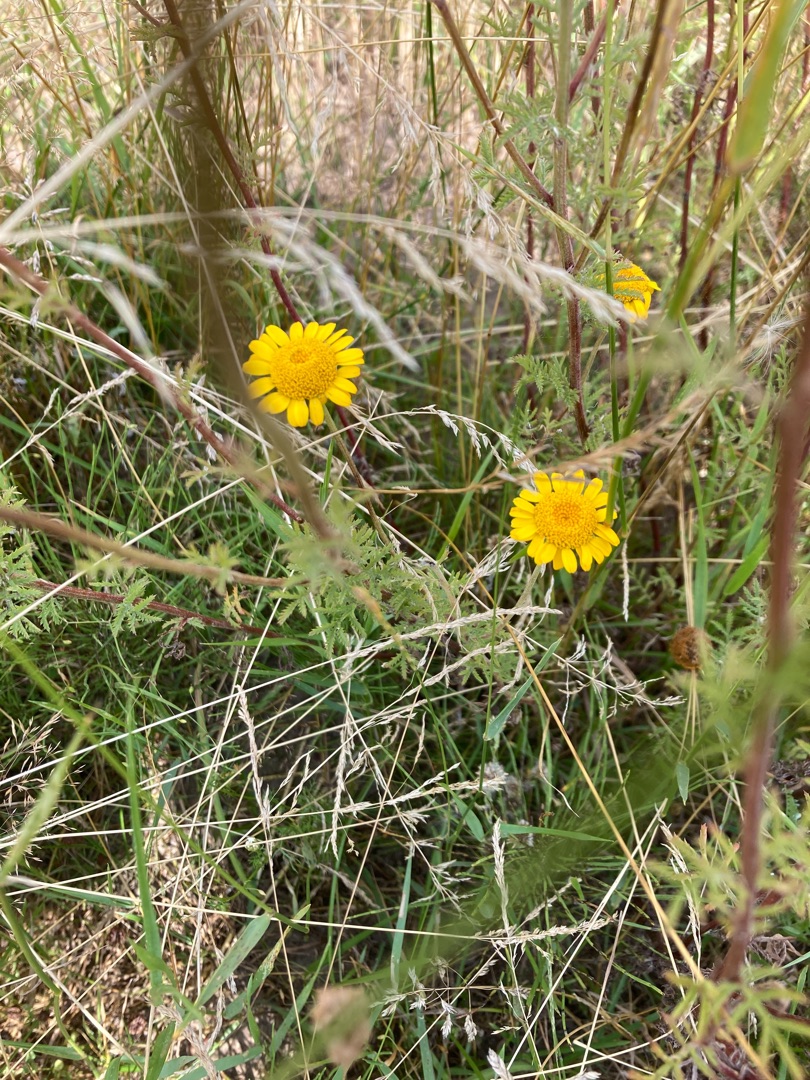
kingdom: Plantae
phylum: Tracheophyta
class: Magnoliopsida
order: Asterales
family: Asteraceae
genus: Cota
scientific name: Cota tinctoria
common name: Farve-gåseurt
